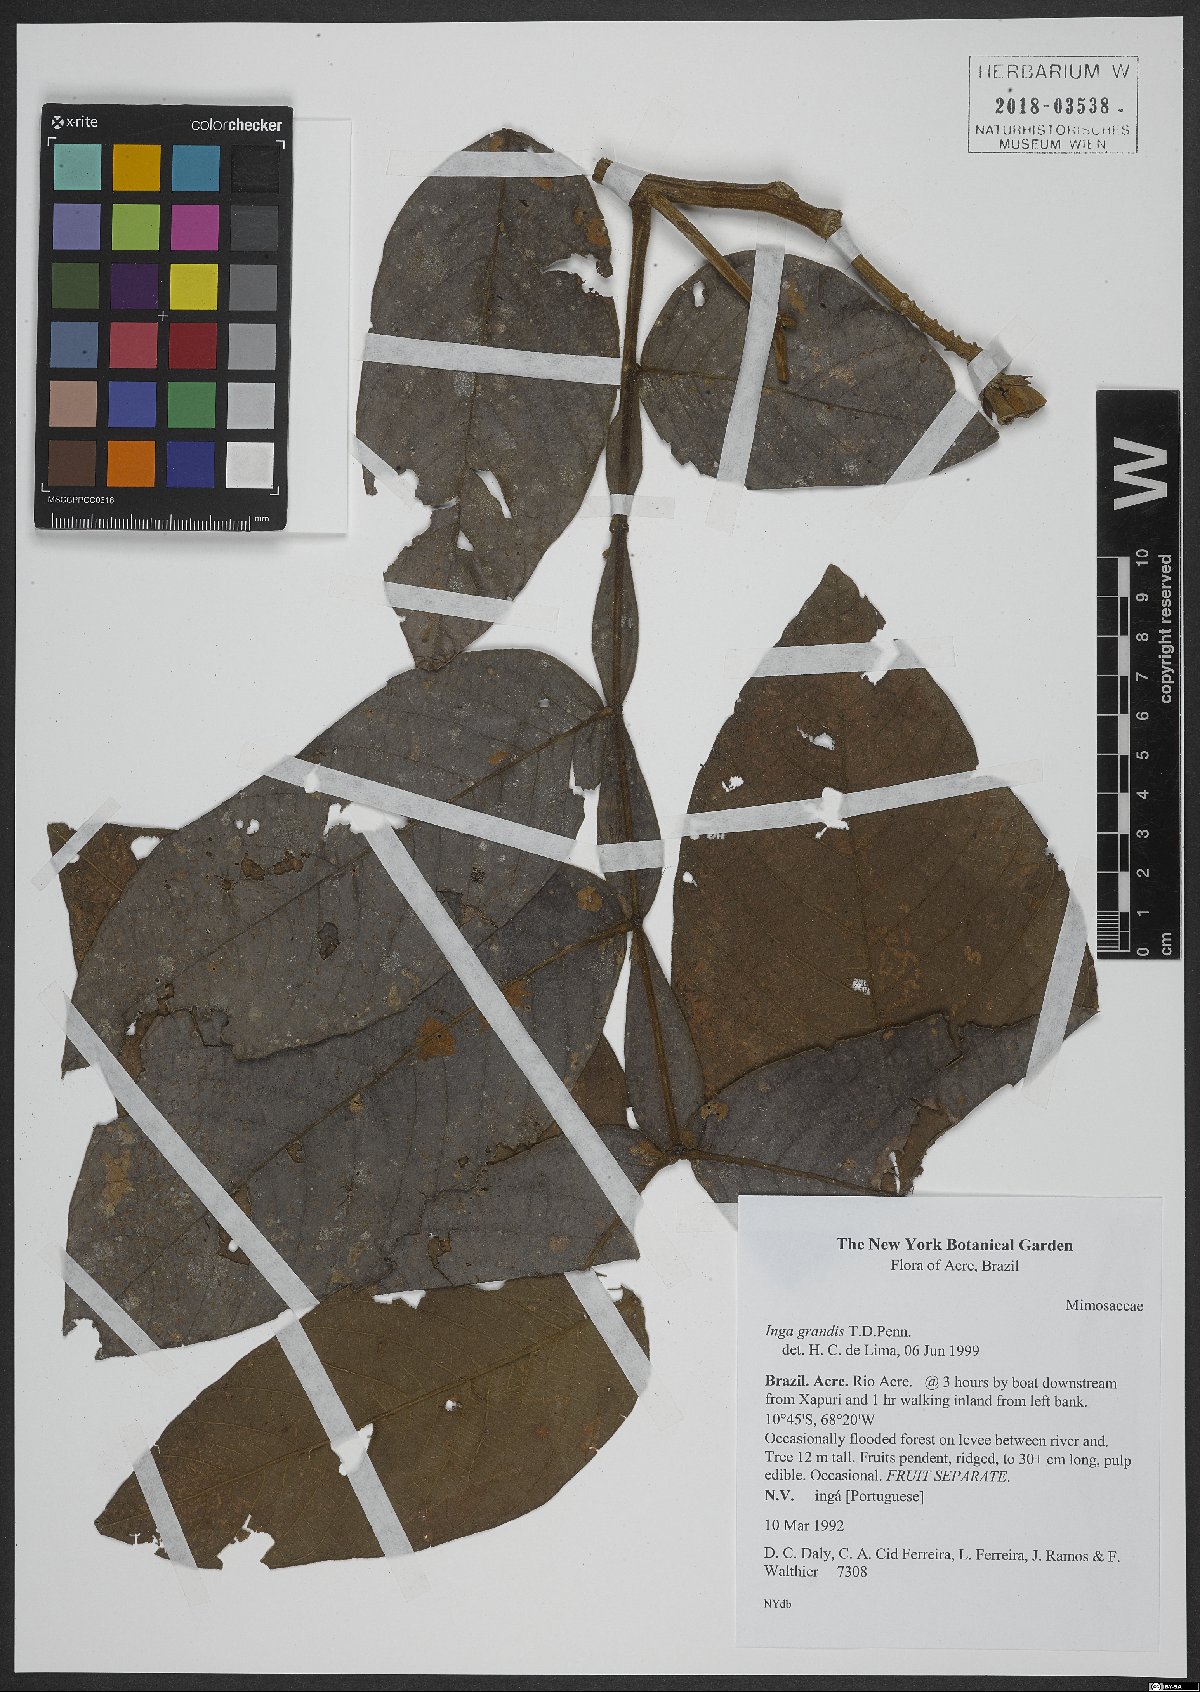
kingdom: Plantae
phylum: Tracheophyta
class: Magnoliopsida
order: Fabales
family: Fabaceae
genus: Inga
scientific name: Inga grandis
